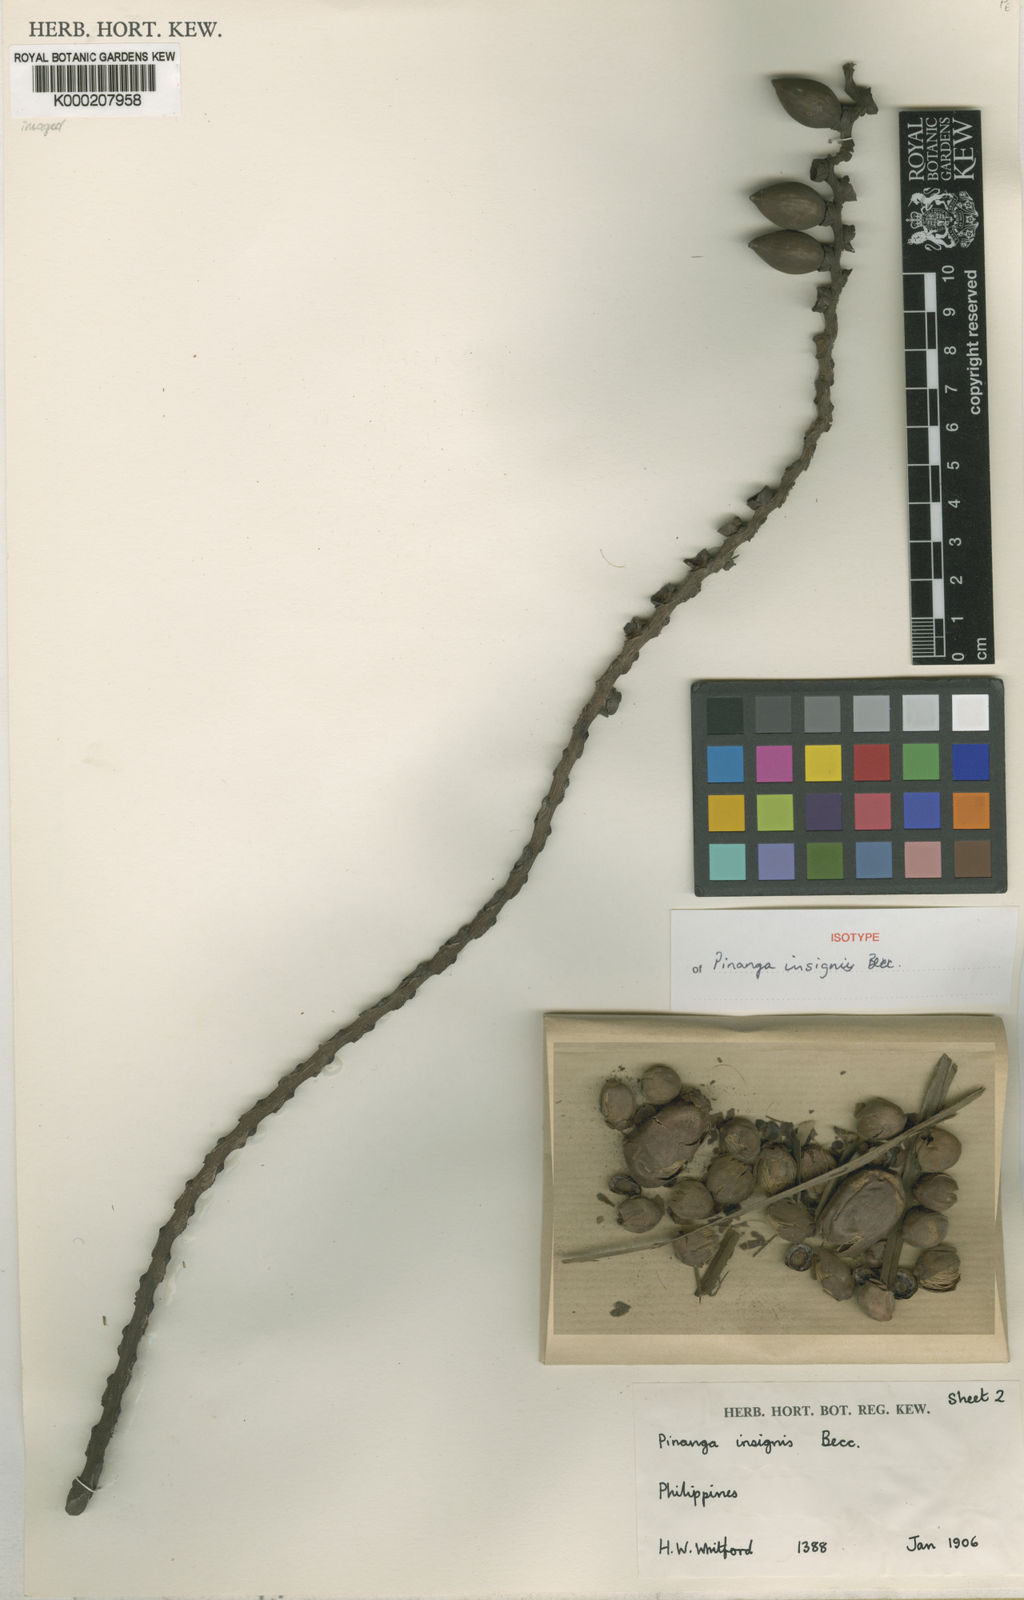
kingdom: Plantae
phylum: Tracheophyta
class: Liliopsida
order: Arecales
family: Arecaceae
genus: Pinanga
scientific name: Pinanga insignis
